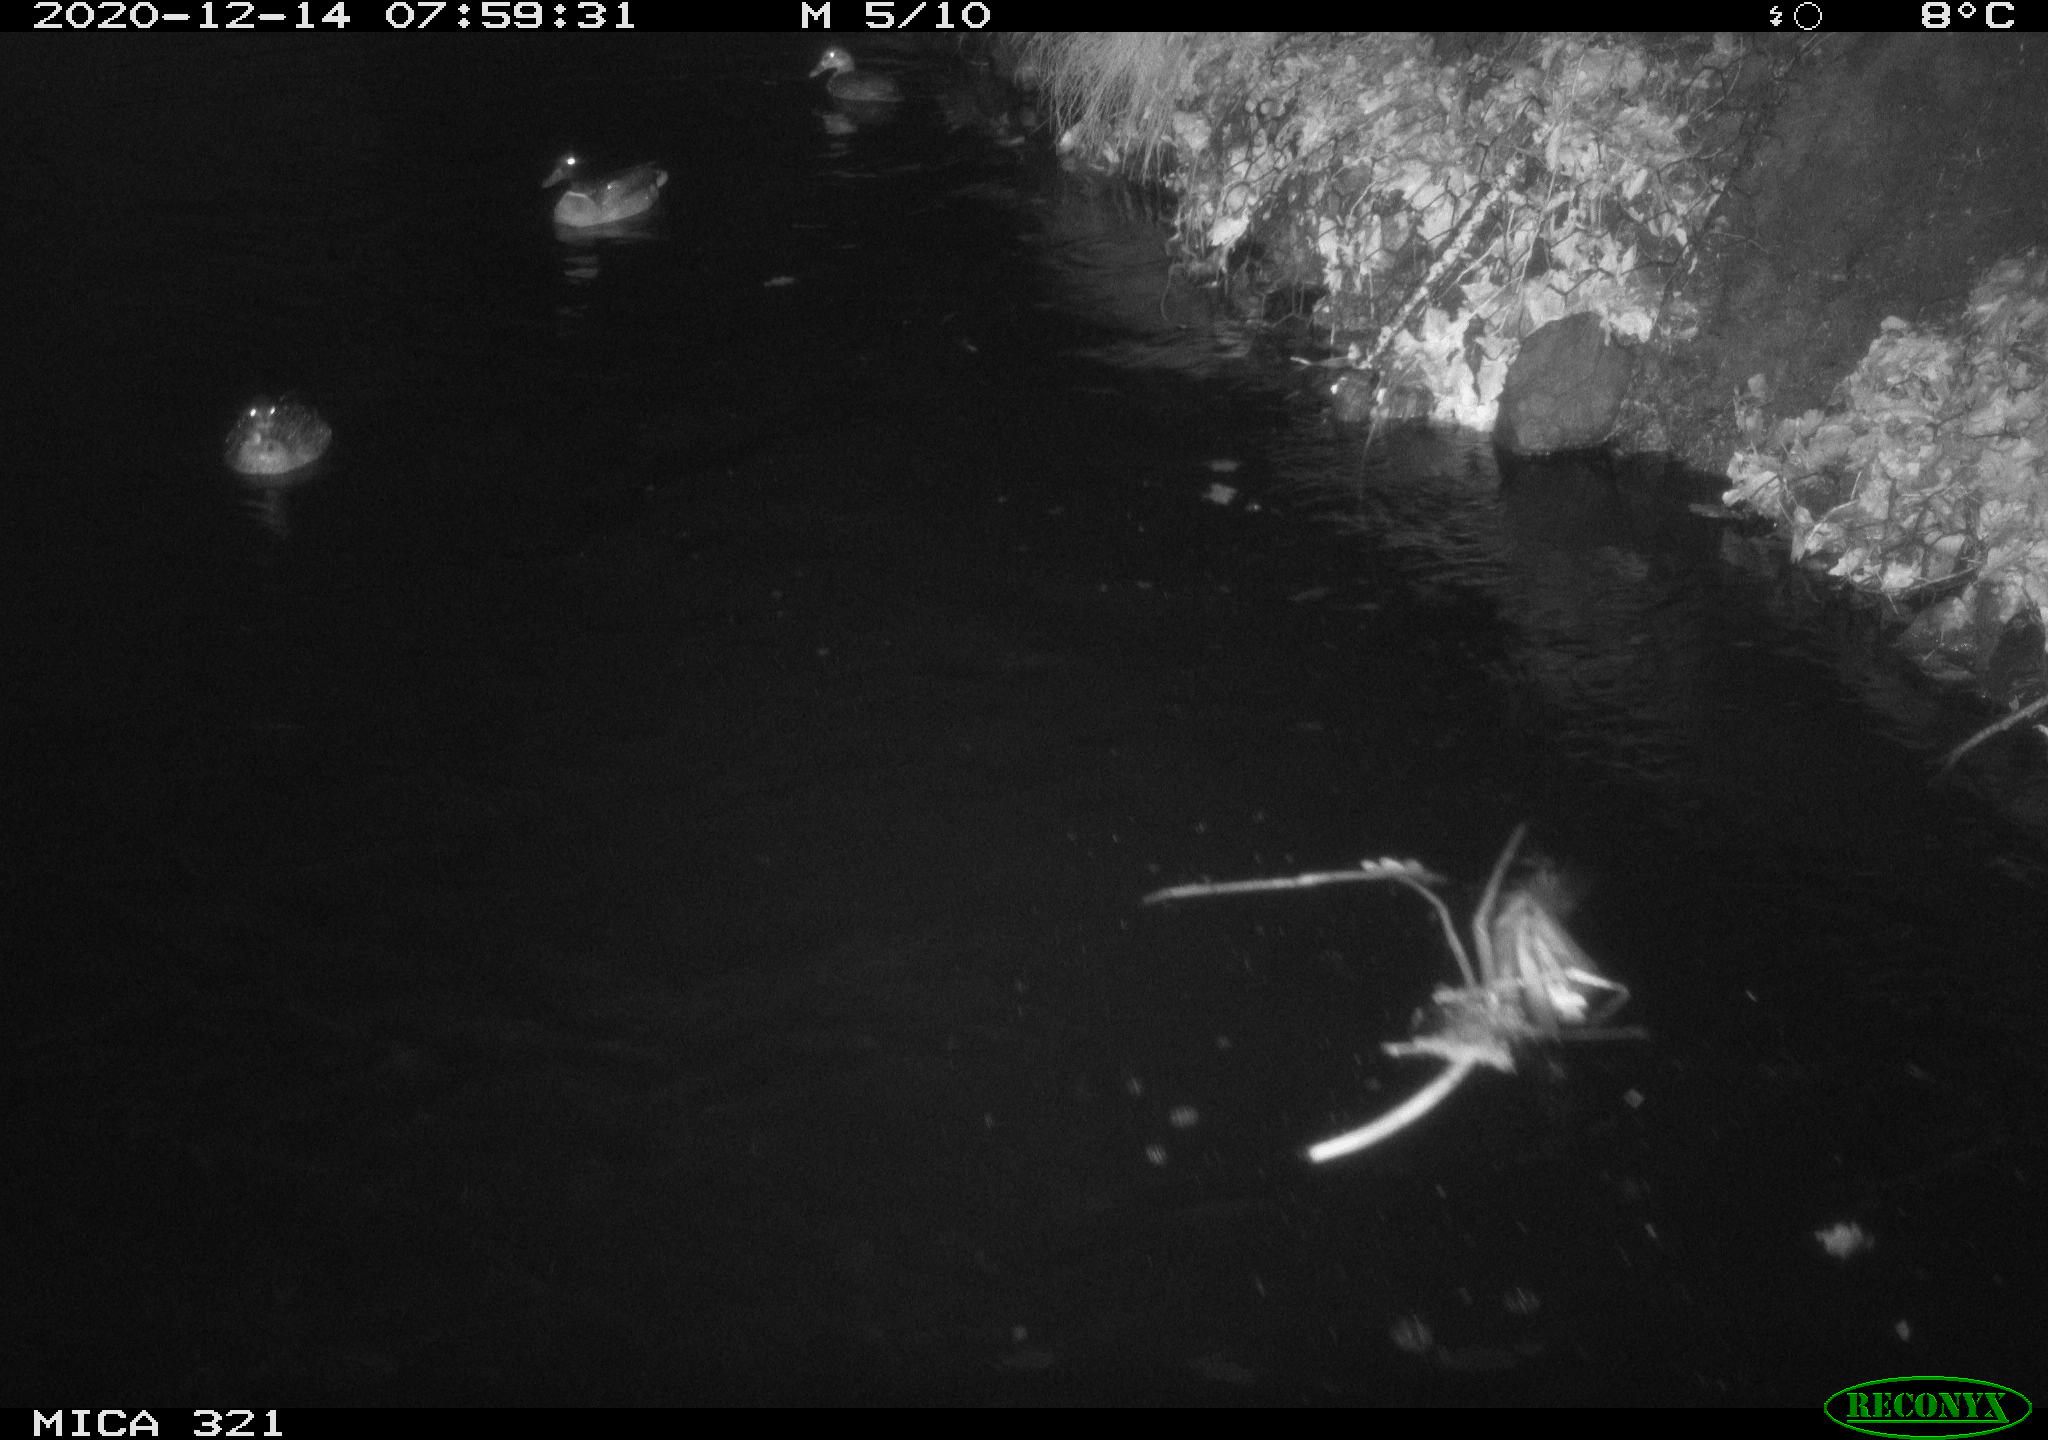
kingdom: Animalia
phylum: Chordata
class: Aves
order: Anseriformes
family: Anatidae
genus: Anas
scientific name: Anas platyrhynchos
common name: Mallard
